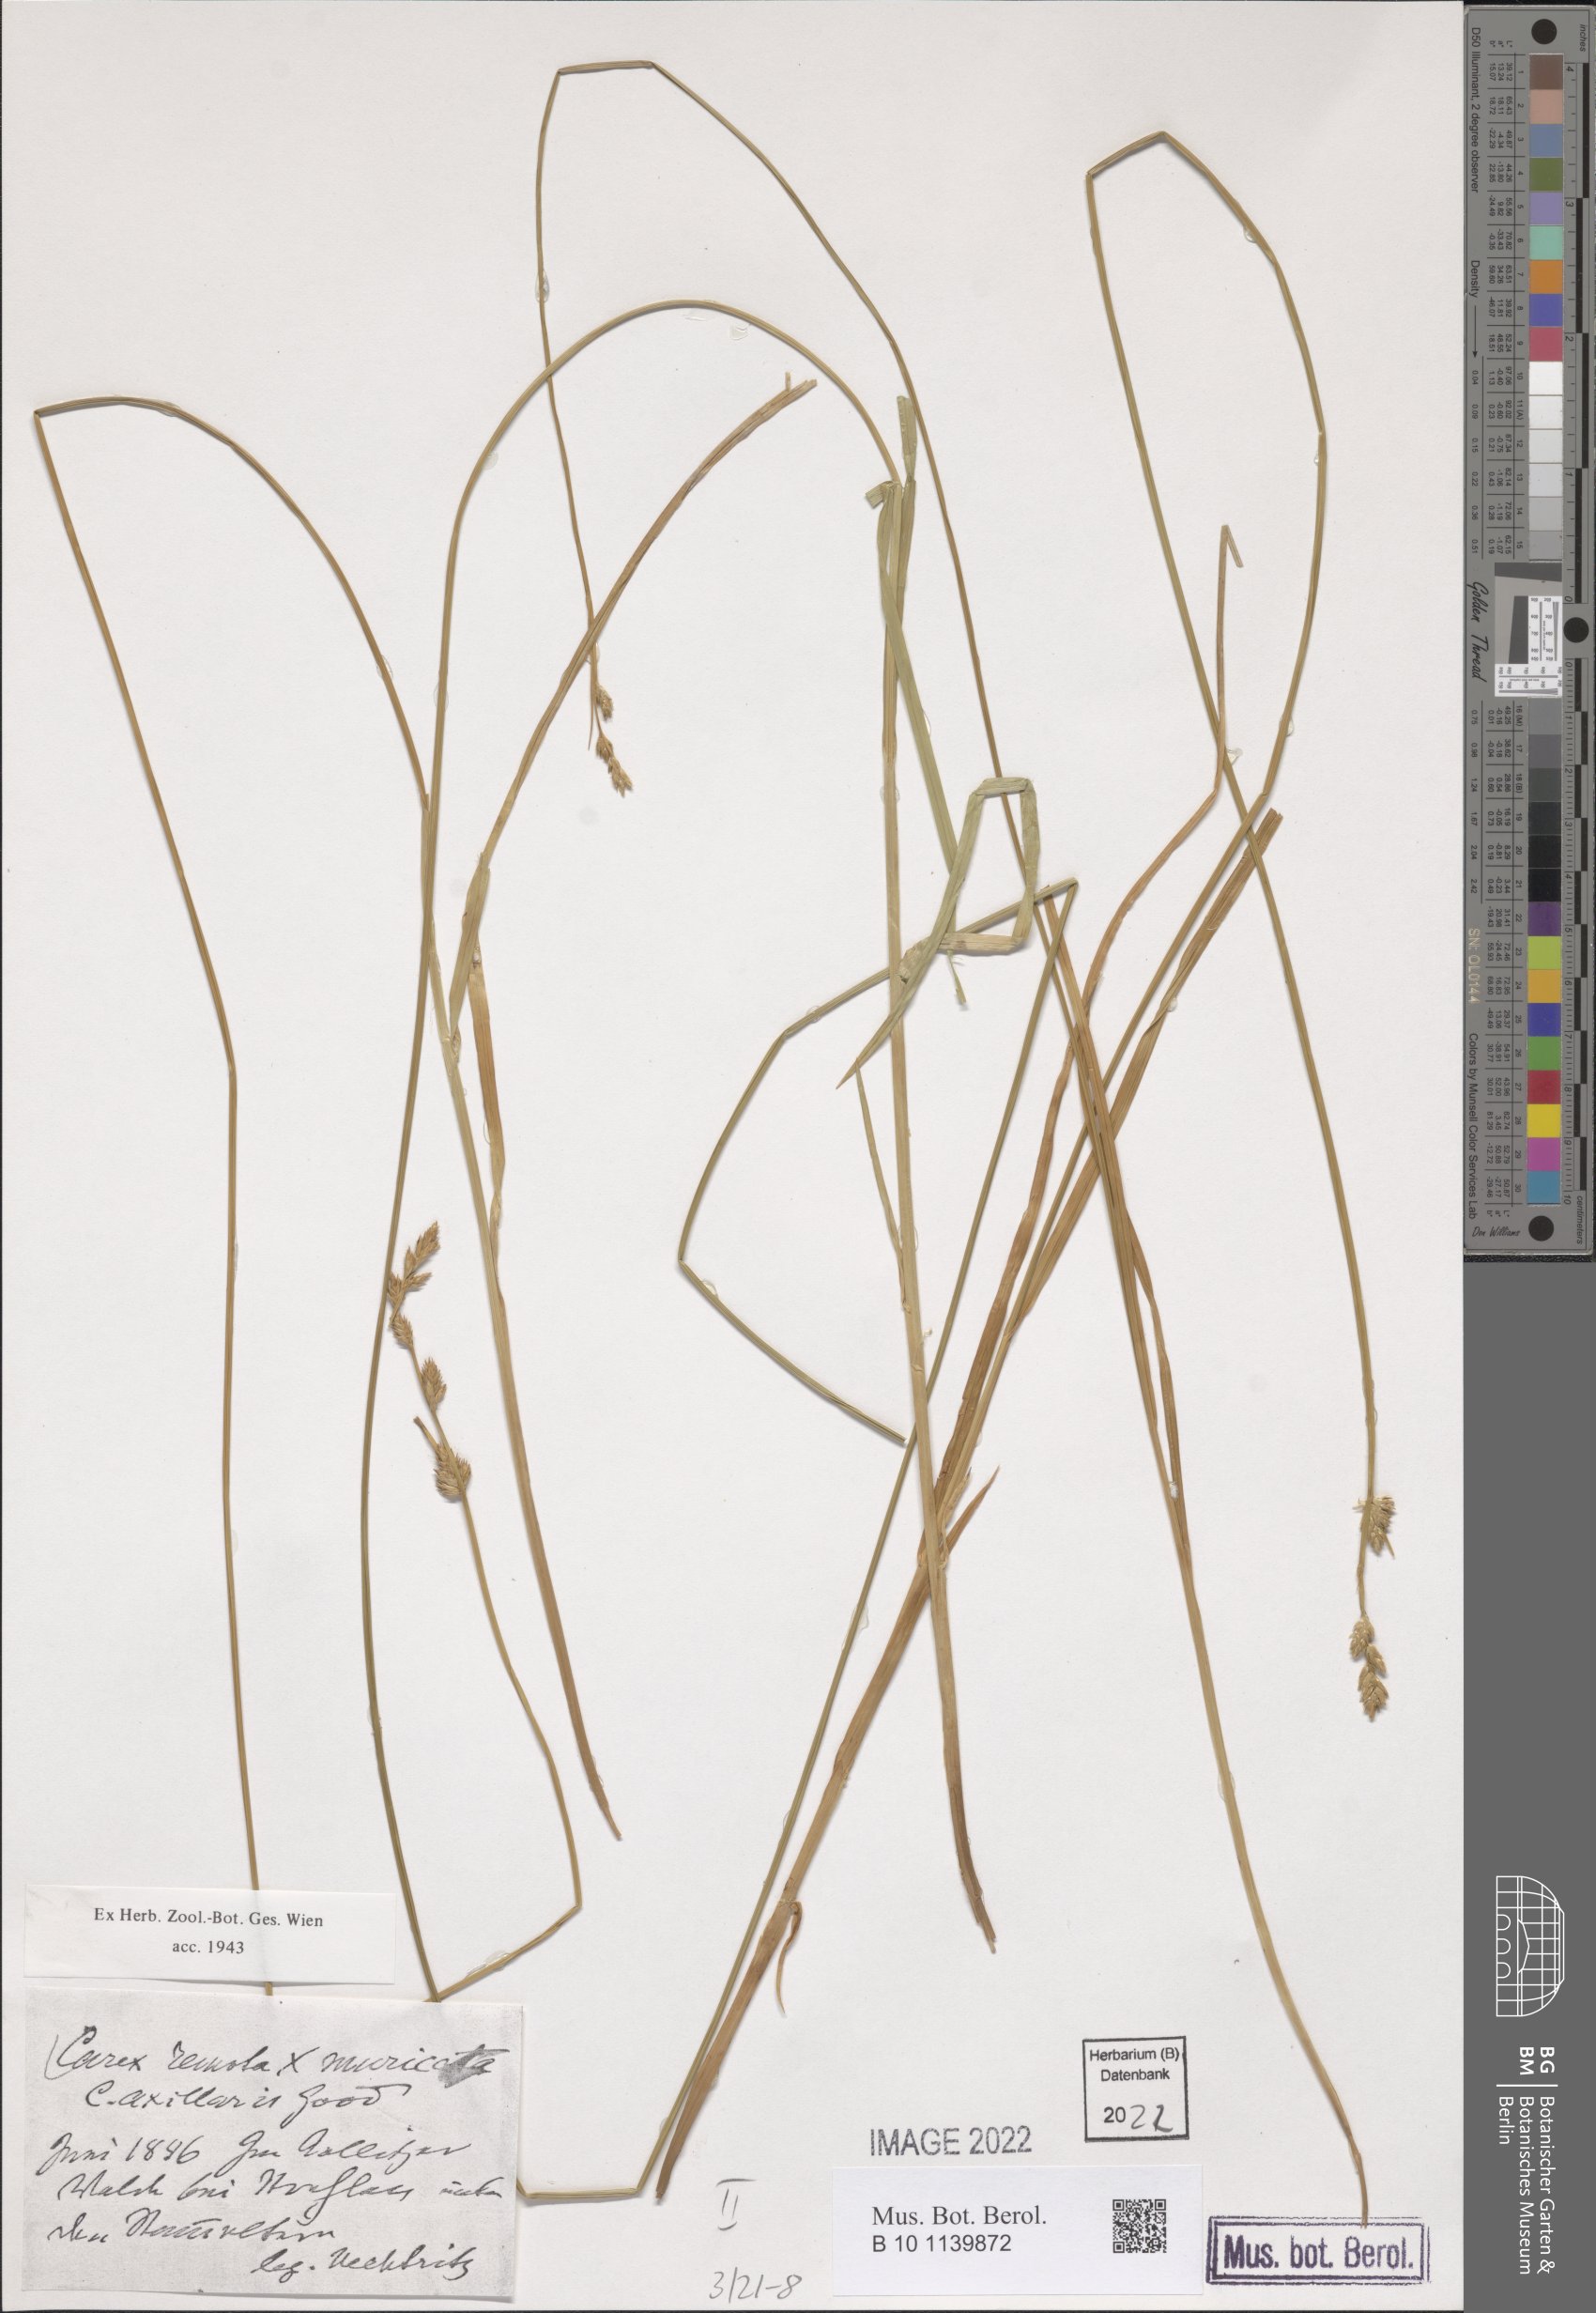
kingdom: Plantae
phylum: Tracheophyta
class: Liliopsida
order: Poales
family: Cyperaceae
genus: Carex
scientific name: Carex pseudoaxillaris
